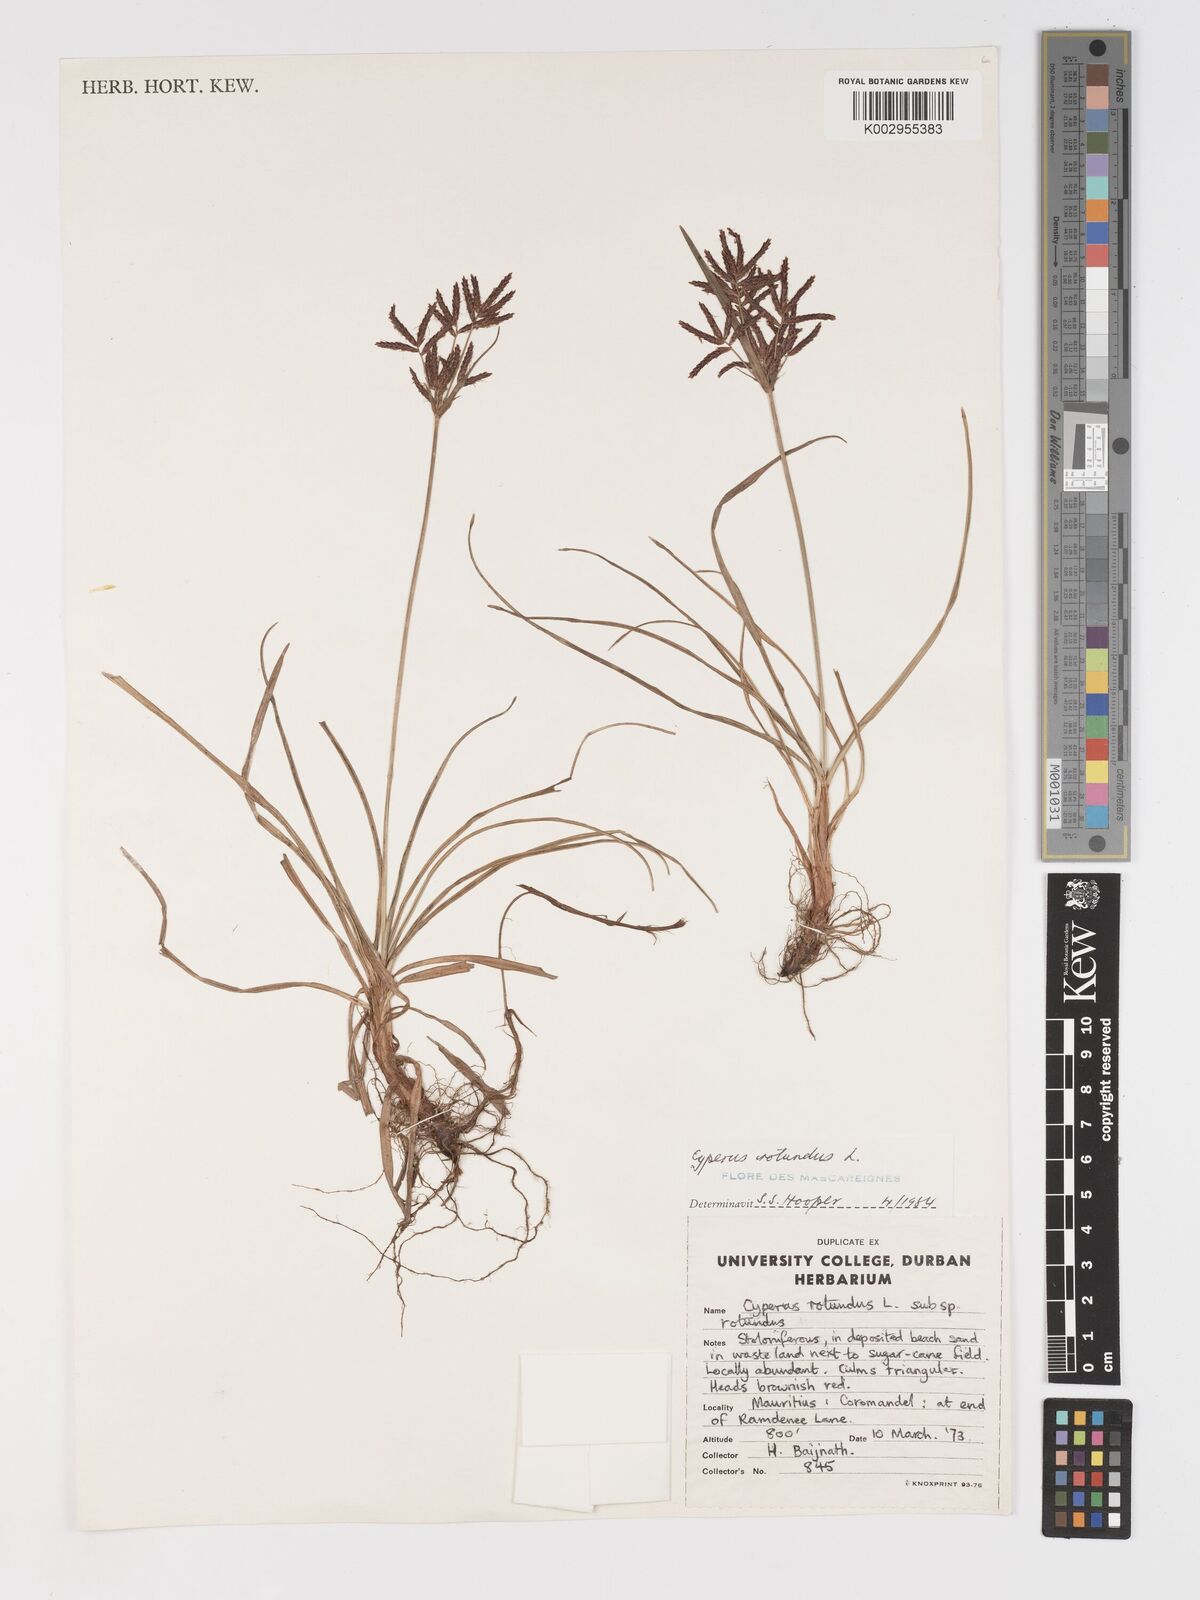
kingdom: Plantae
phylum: Tracheophyta
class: Liliopsida
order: Poales
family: Cyperaceae
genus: Cyperus
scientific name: Cyperus tuberosus
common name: Nut grass
